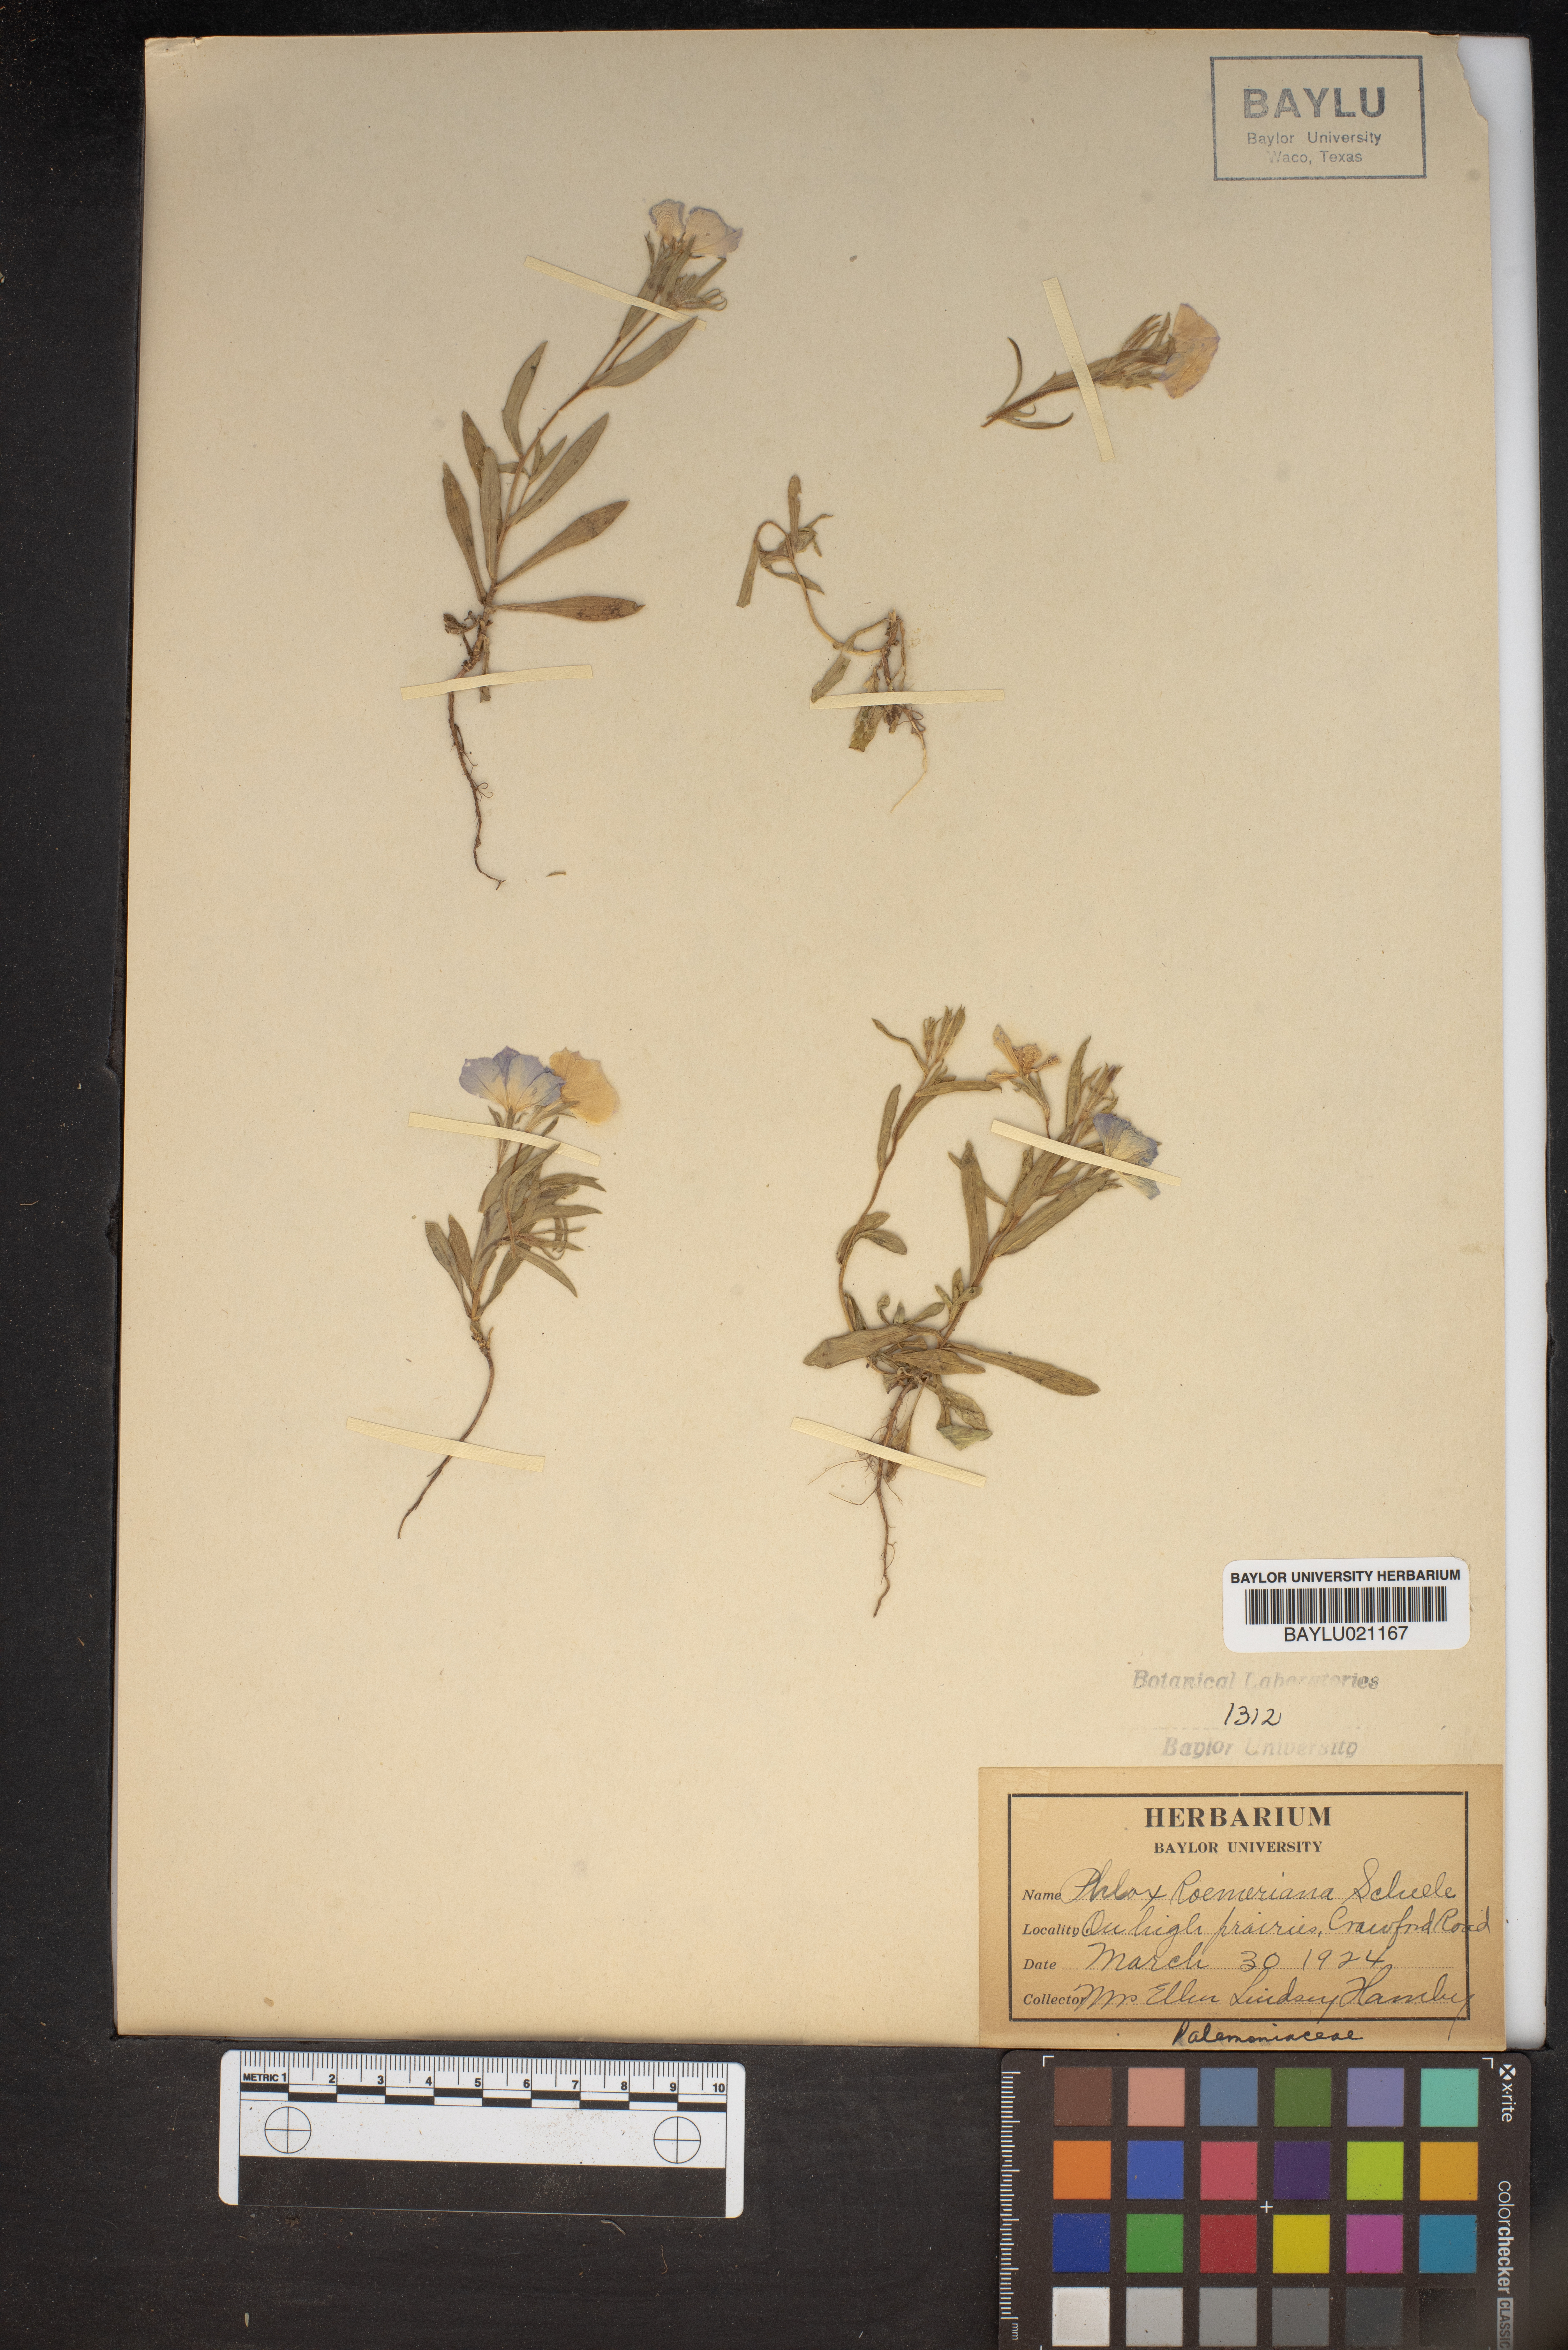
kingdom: Plantae
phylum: Tracheophyta
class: Magnoliopsida
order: Ericales
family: Polemoniaceae
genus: Phlox
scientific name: Phlox roemeriana
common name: Roemer's phlox
